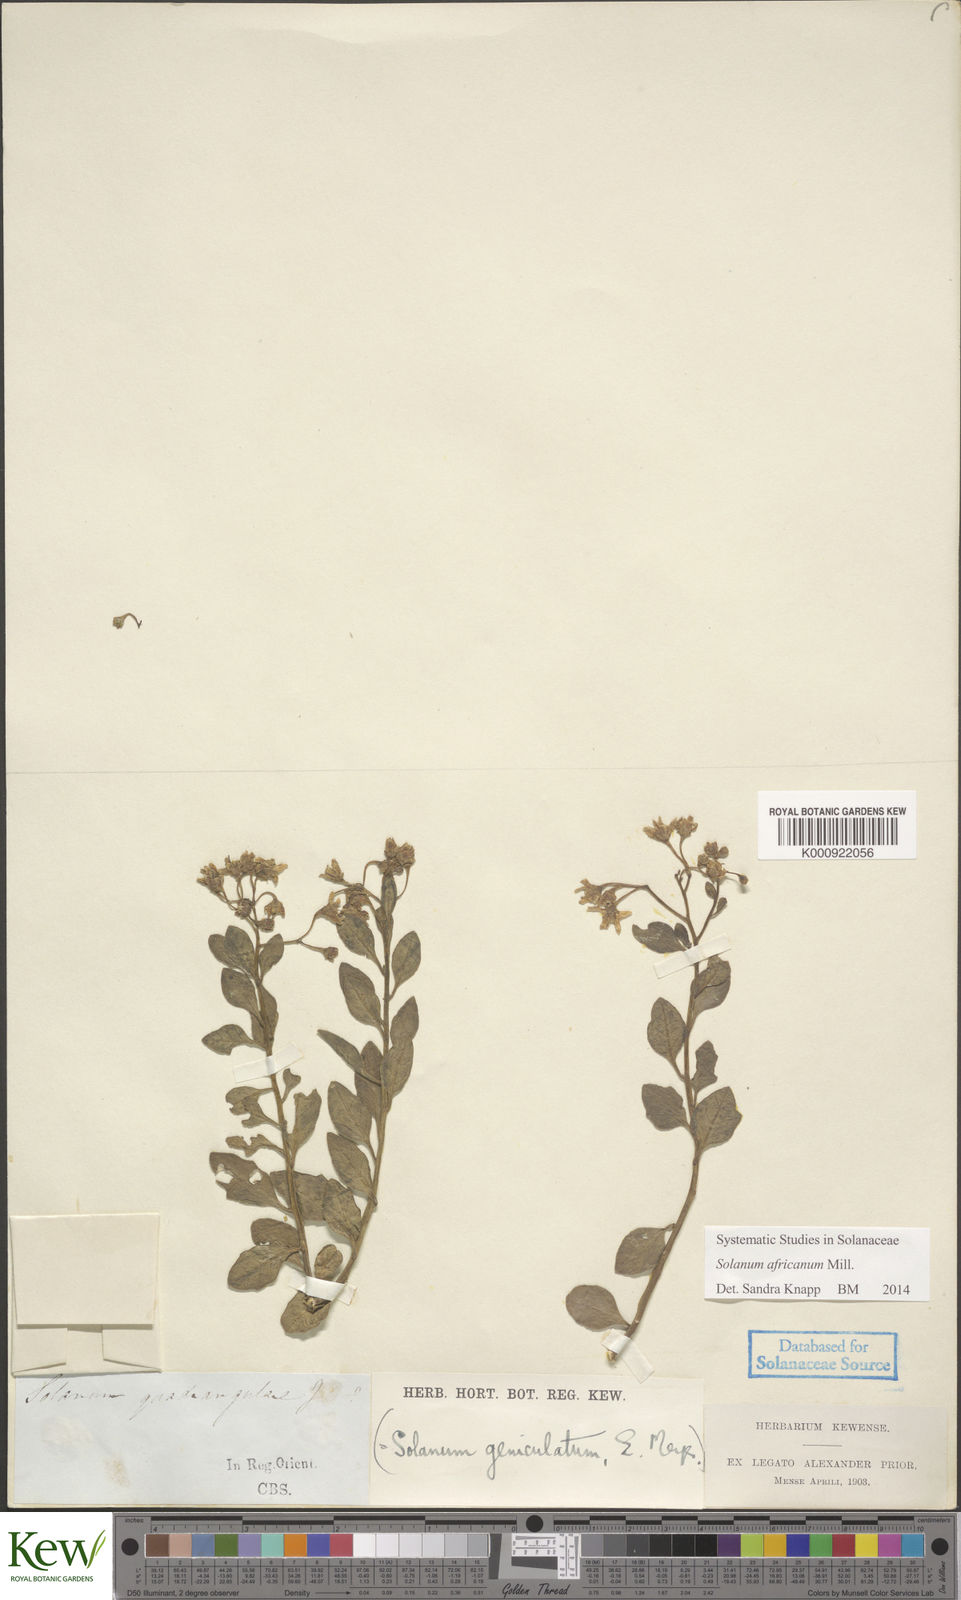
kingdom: Plantae
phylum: Tracheophyta
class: Magnoliopsida
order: Solanales
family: Solanaceae
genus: Solanum
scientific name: Solanum africanum
